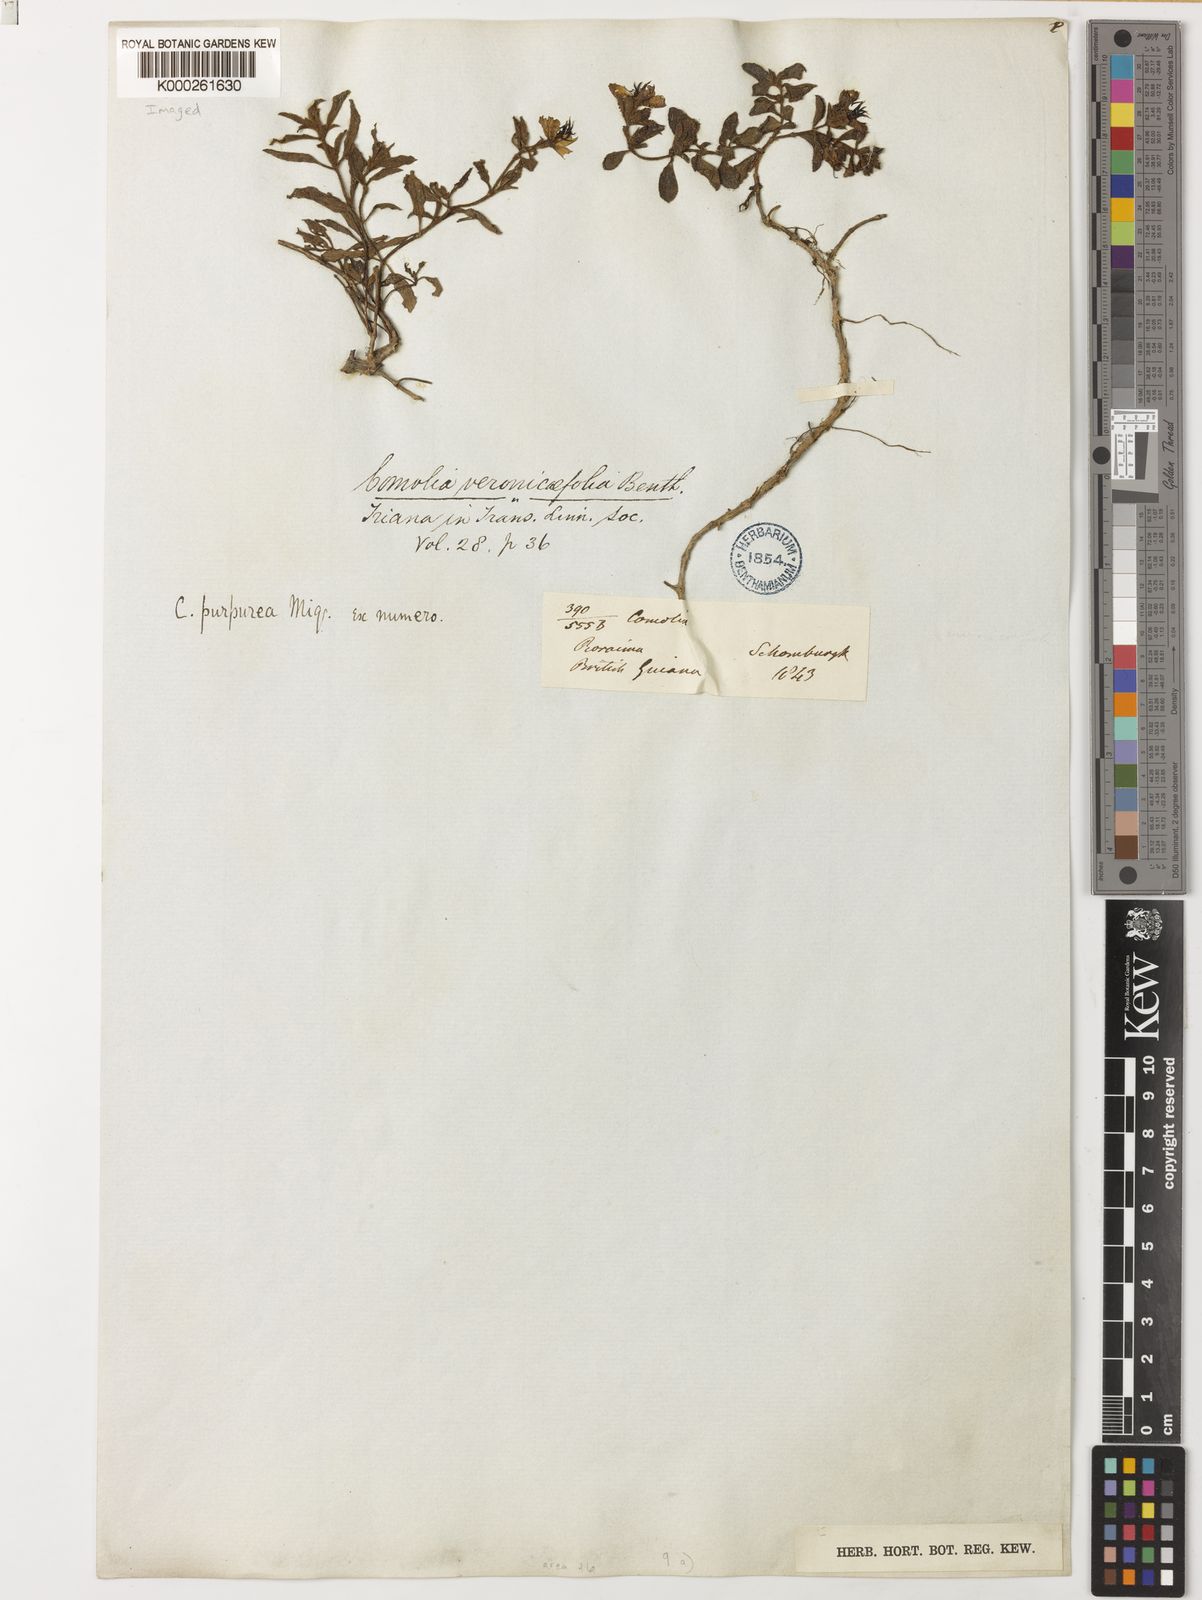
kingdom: Plantae
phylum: Tracheophyta
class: Magnoliopsida
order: Myrtales
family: Melastomataceae
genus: Comolia
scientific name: Comolia villosa
